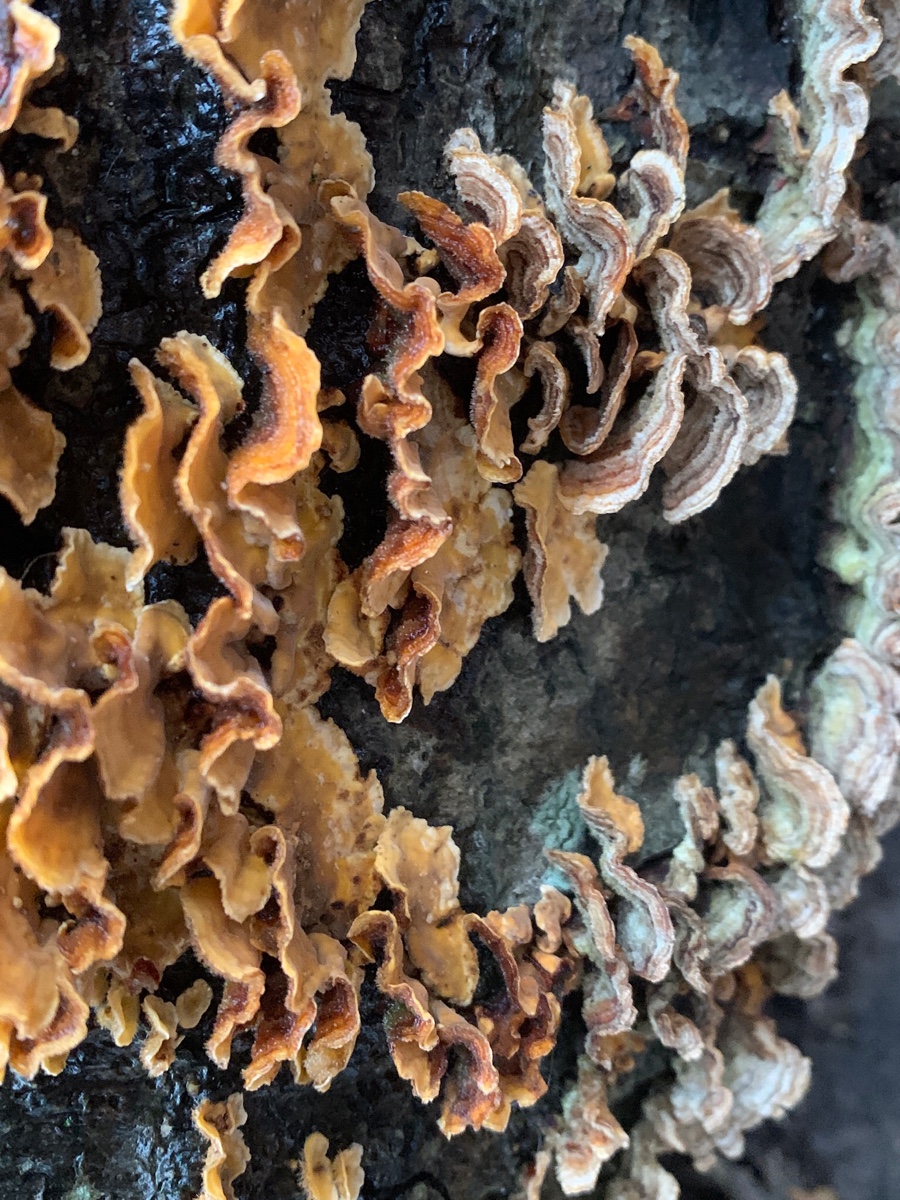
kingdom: Fungi
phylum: Basidiomycota
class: Agaricomycetes
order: Russulales
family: Stereaceae
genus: Stereum
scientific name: Stereum hirsutum
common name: håret lædersvamp
